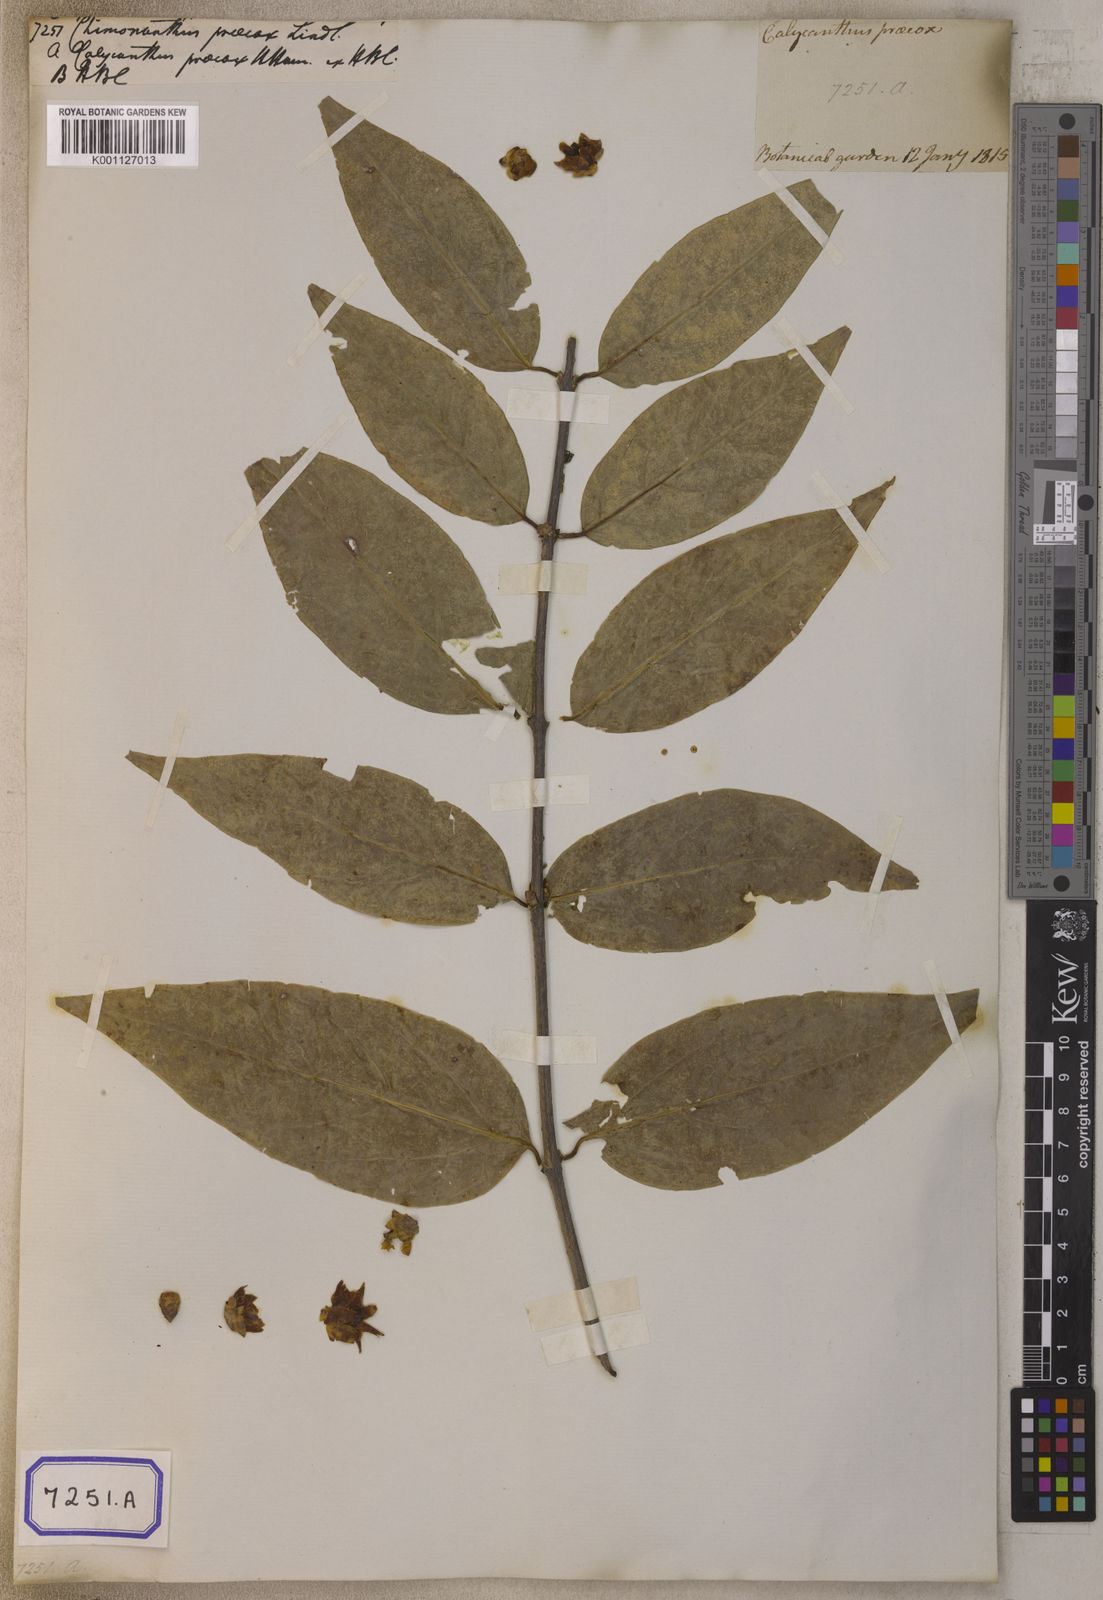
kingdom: Plantae
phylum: Tracheophyta
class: Magnoliopsida
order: Laurales
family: Calycanthaceae
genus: Chimonanthus
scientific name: Chimonanthus praecox
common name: Wintersweet
